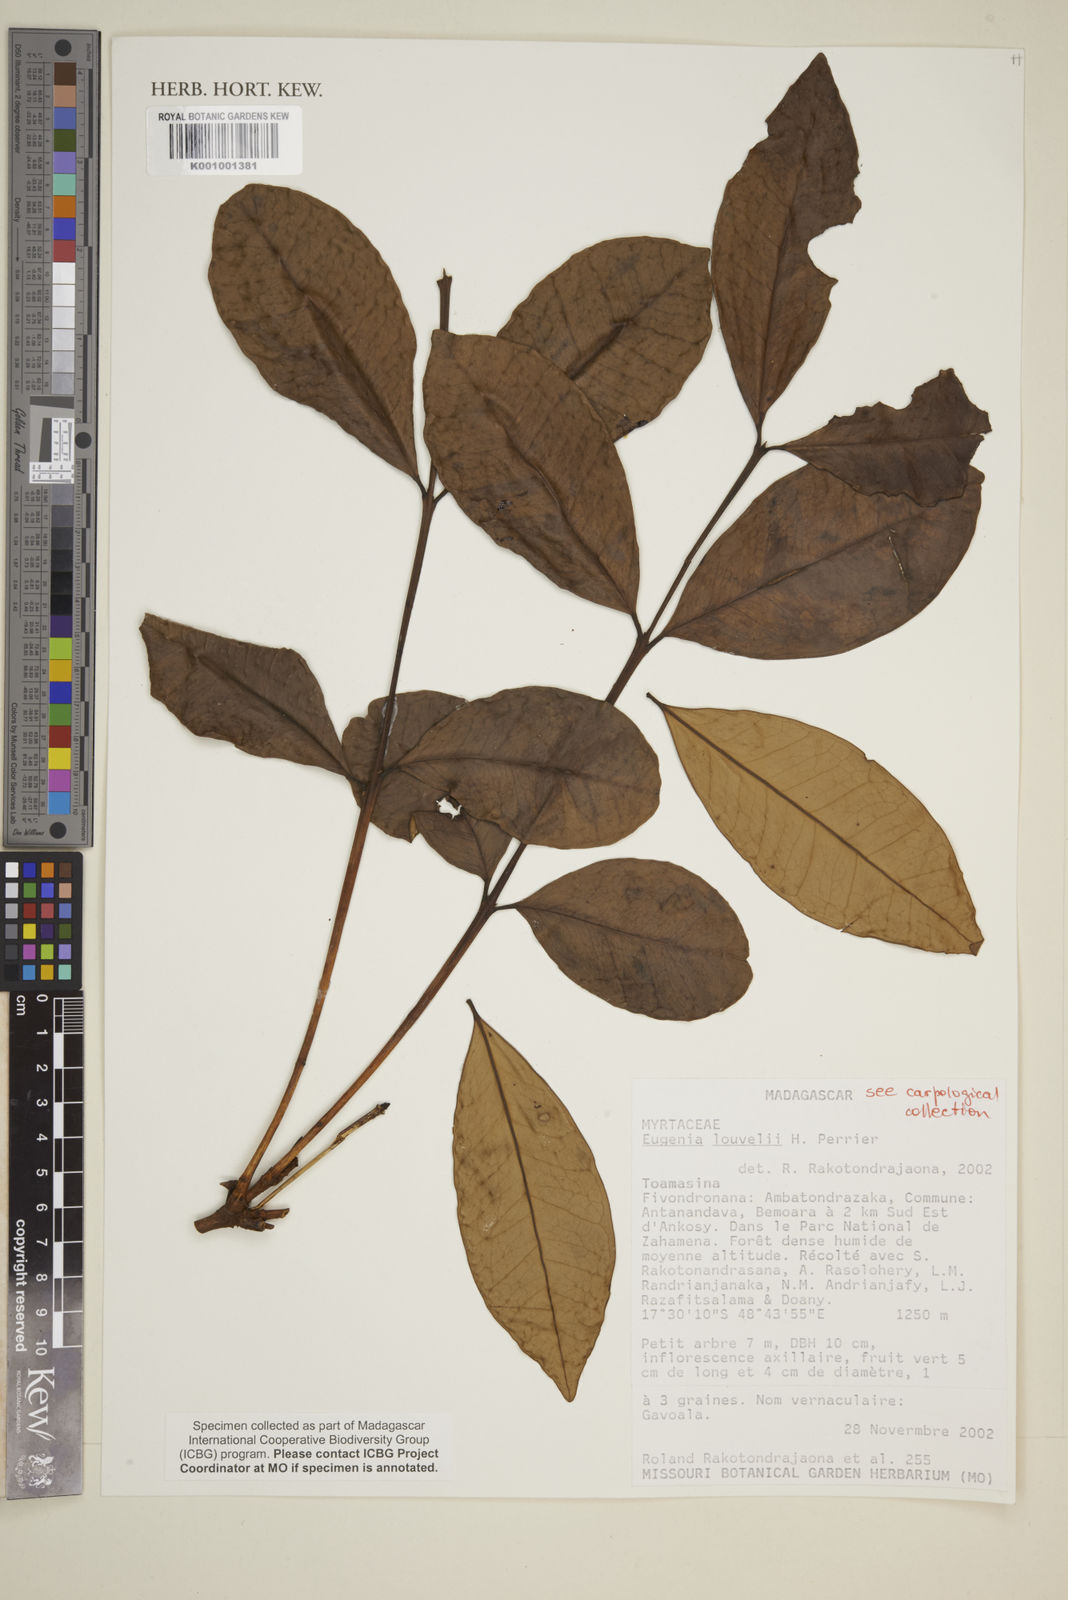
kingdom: Plantae
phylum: Tracheophyta
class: Magnoliopsida
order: Myrtales
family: Myrtaceae
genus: Eugenia
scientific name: Eugenia louvelii
